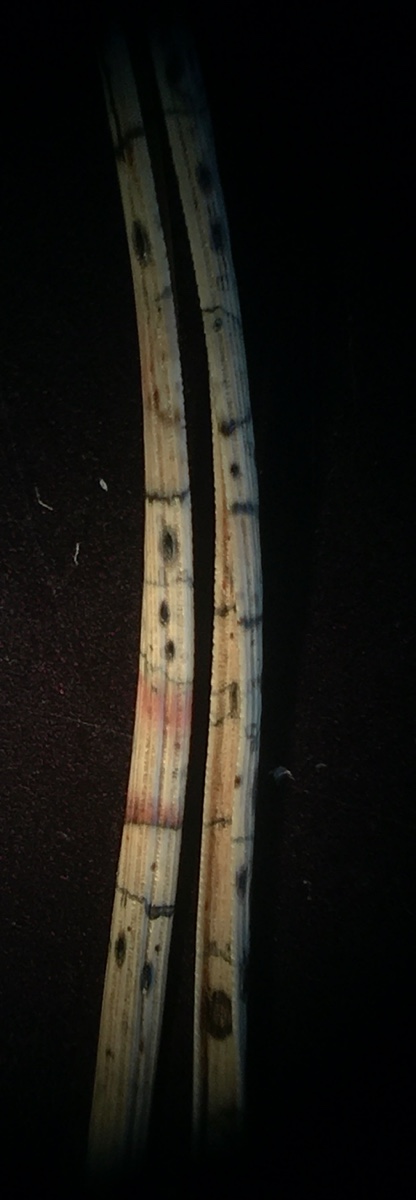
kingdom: Fungi
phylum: Ascomycota
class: Leotiomycetes
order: Rhytismatales
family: Rhytismataceae
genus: Lophodermium
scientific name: Lophodermium pinastri
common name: fyrre-fureplet
